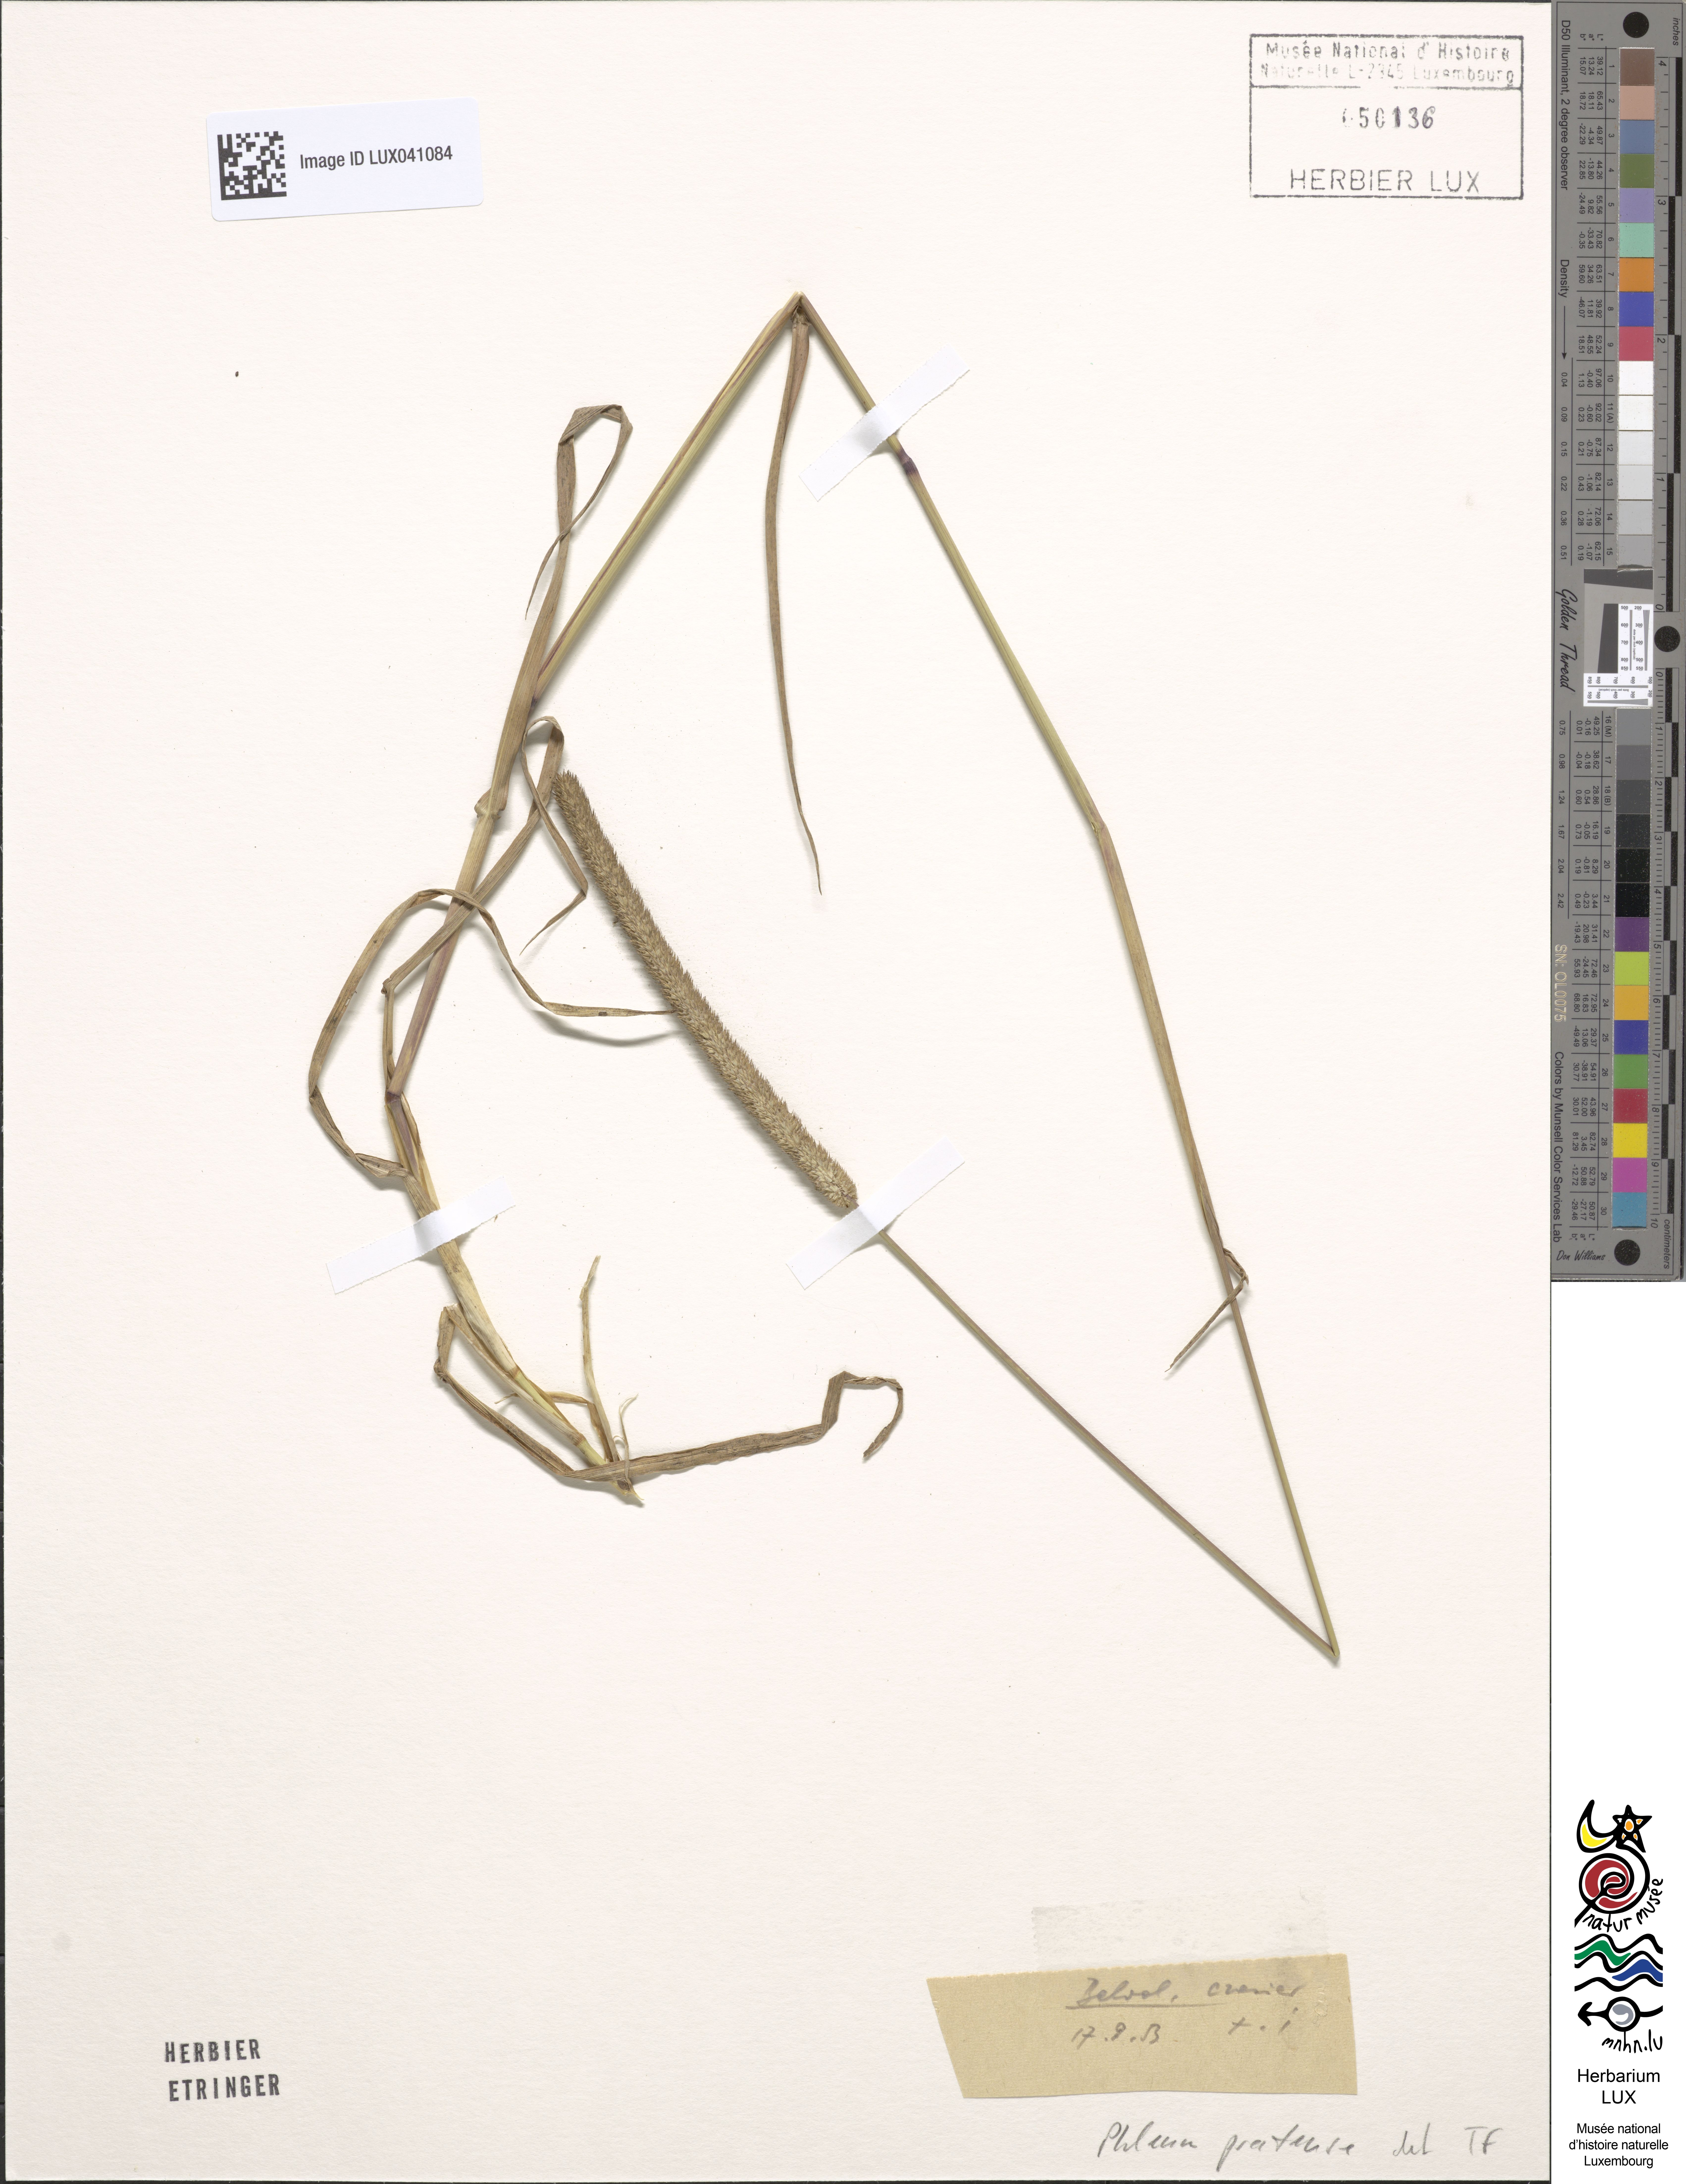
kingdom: Plantae
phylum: Tracheophyta
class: Liliopsida
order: Poales
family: Poaceae
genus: Phleum
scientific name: Phleum pratense
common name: Timothy grass
